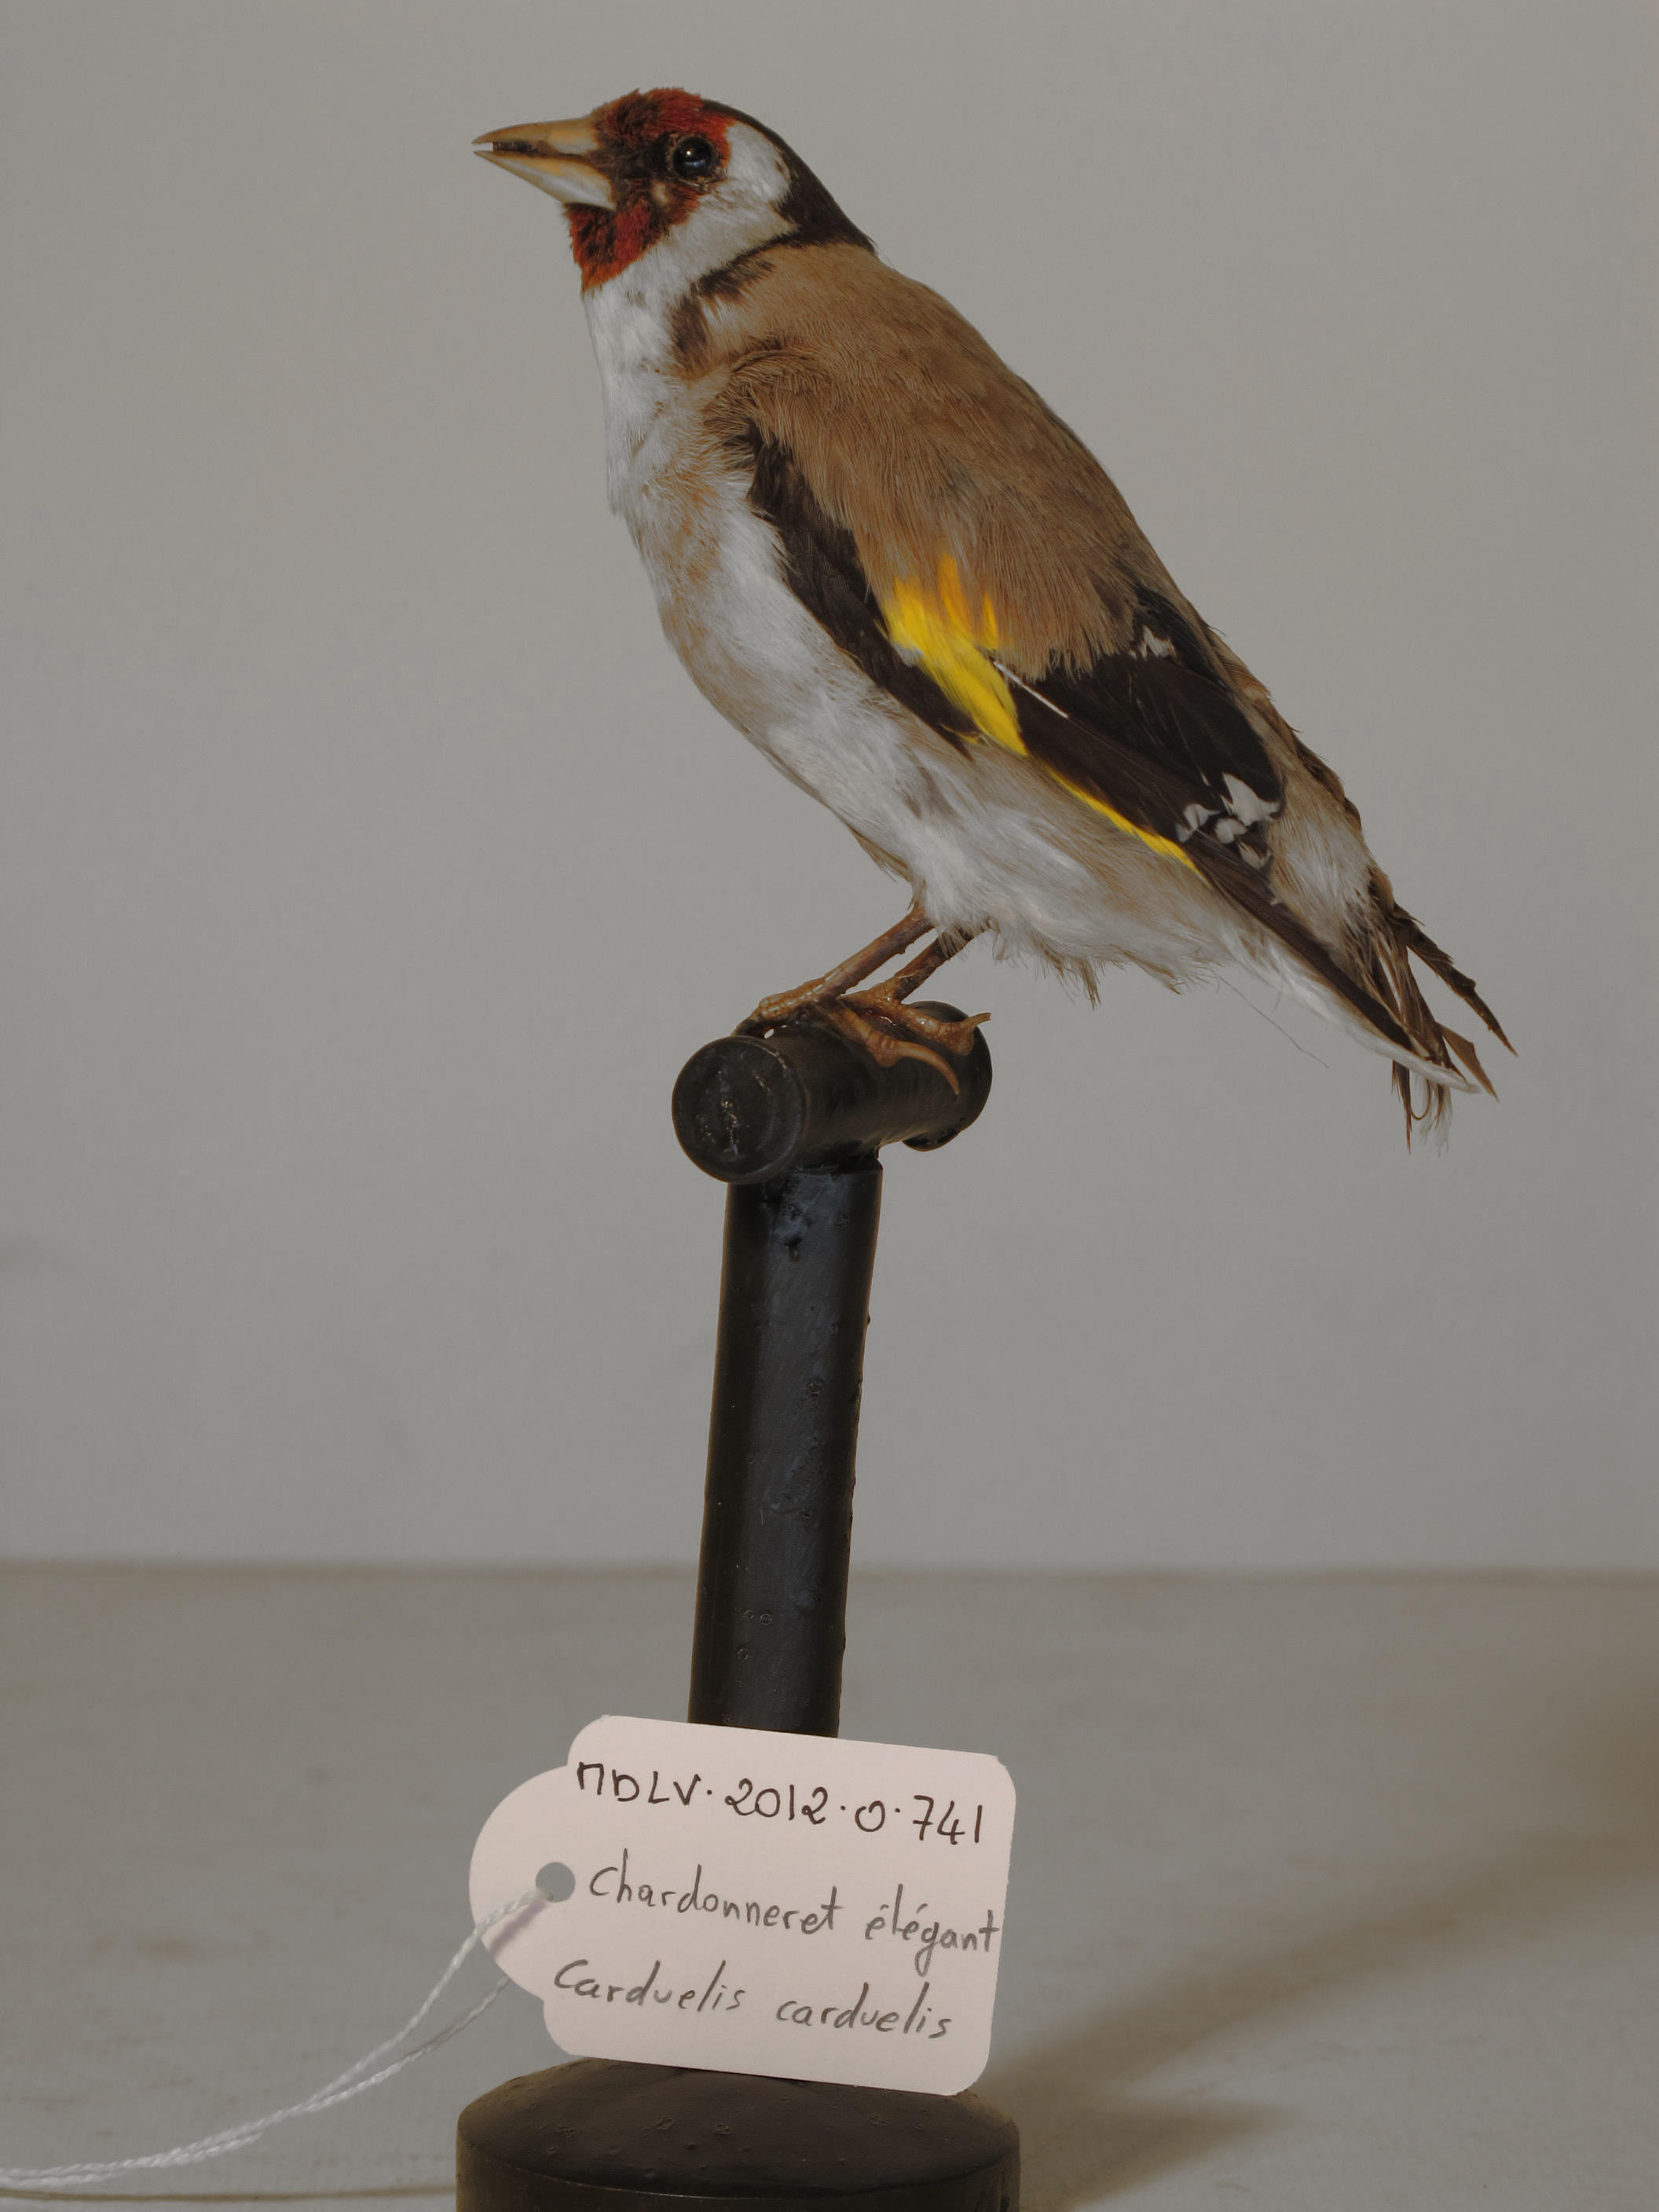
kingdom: Animalia
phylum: Chordata
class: Aves
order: Passeriformes
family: Fringillidae
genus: Carduelis
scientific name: Carduelis carduelis
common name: European Goldfinch
